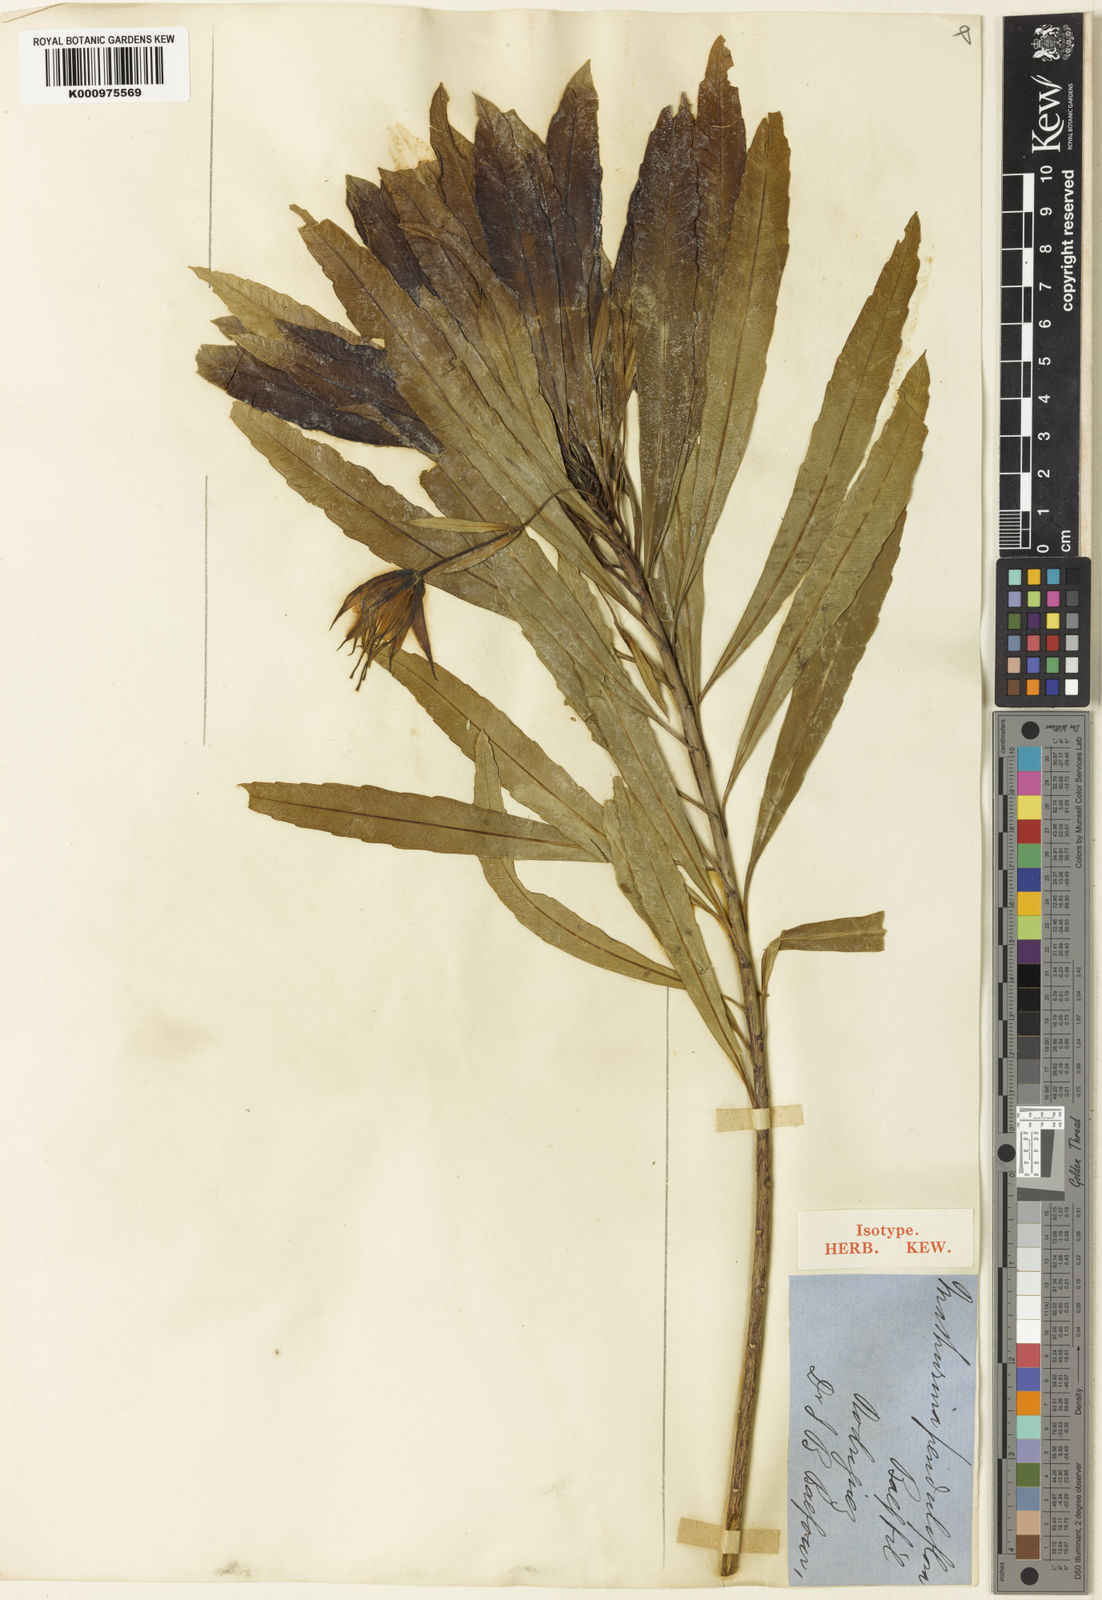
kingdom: Plantae
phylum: Tracheophyta
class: Magnoliopsida
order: Malpighiales
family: Turneraceae
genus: Mathurina
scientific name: Mathurina penduliflora
